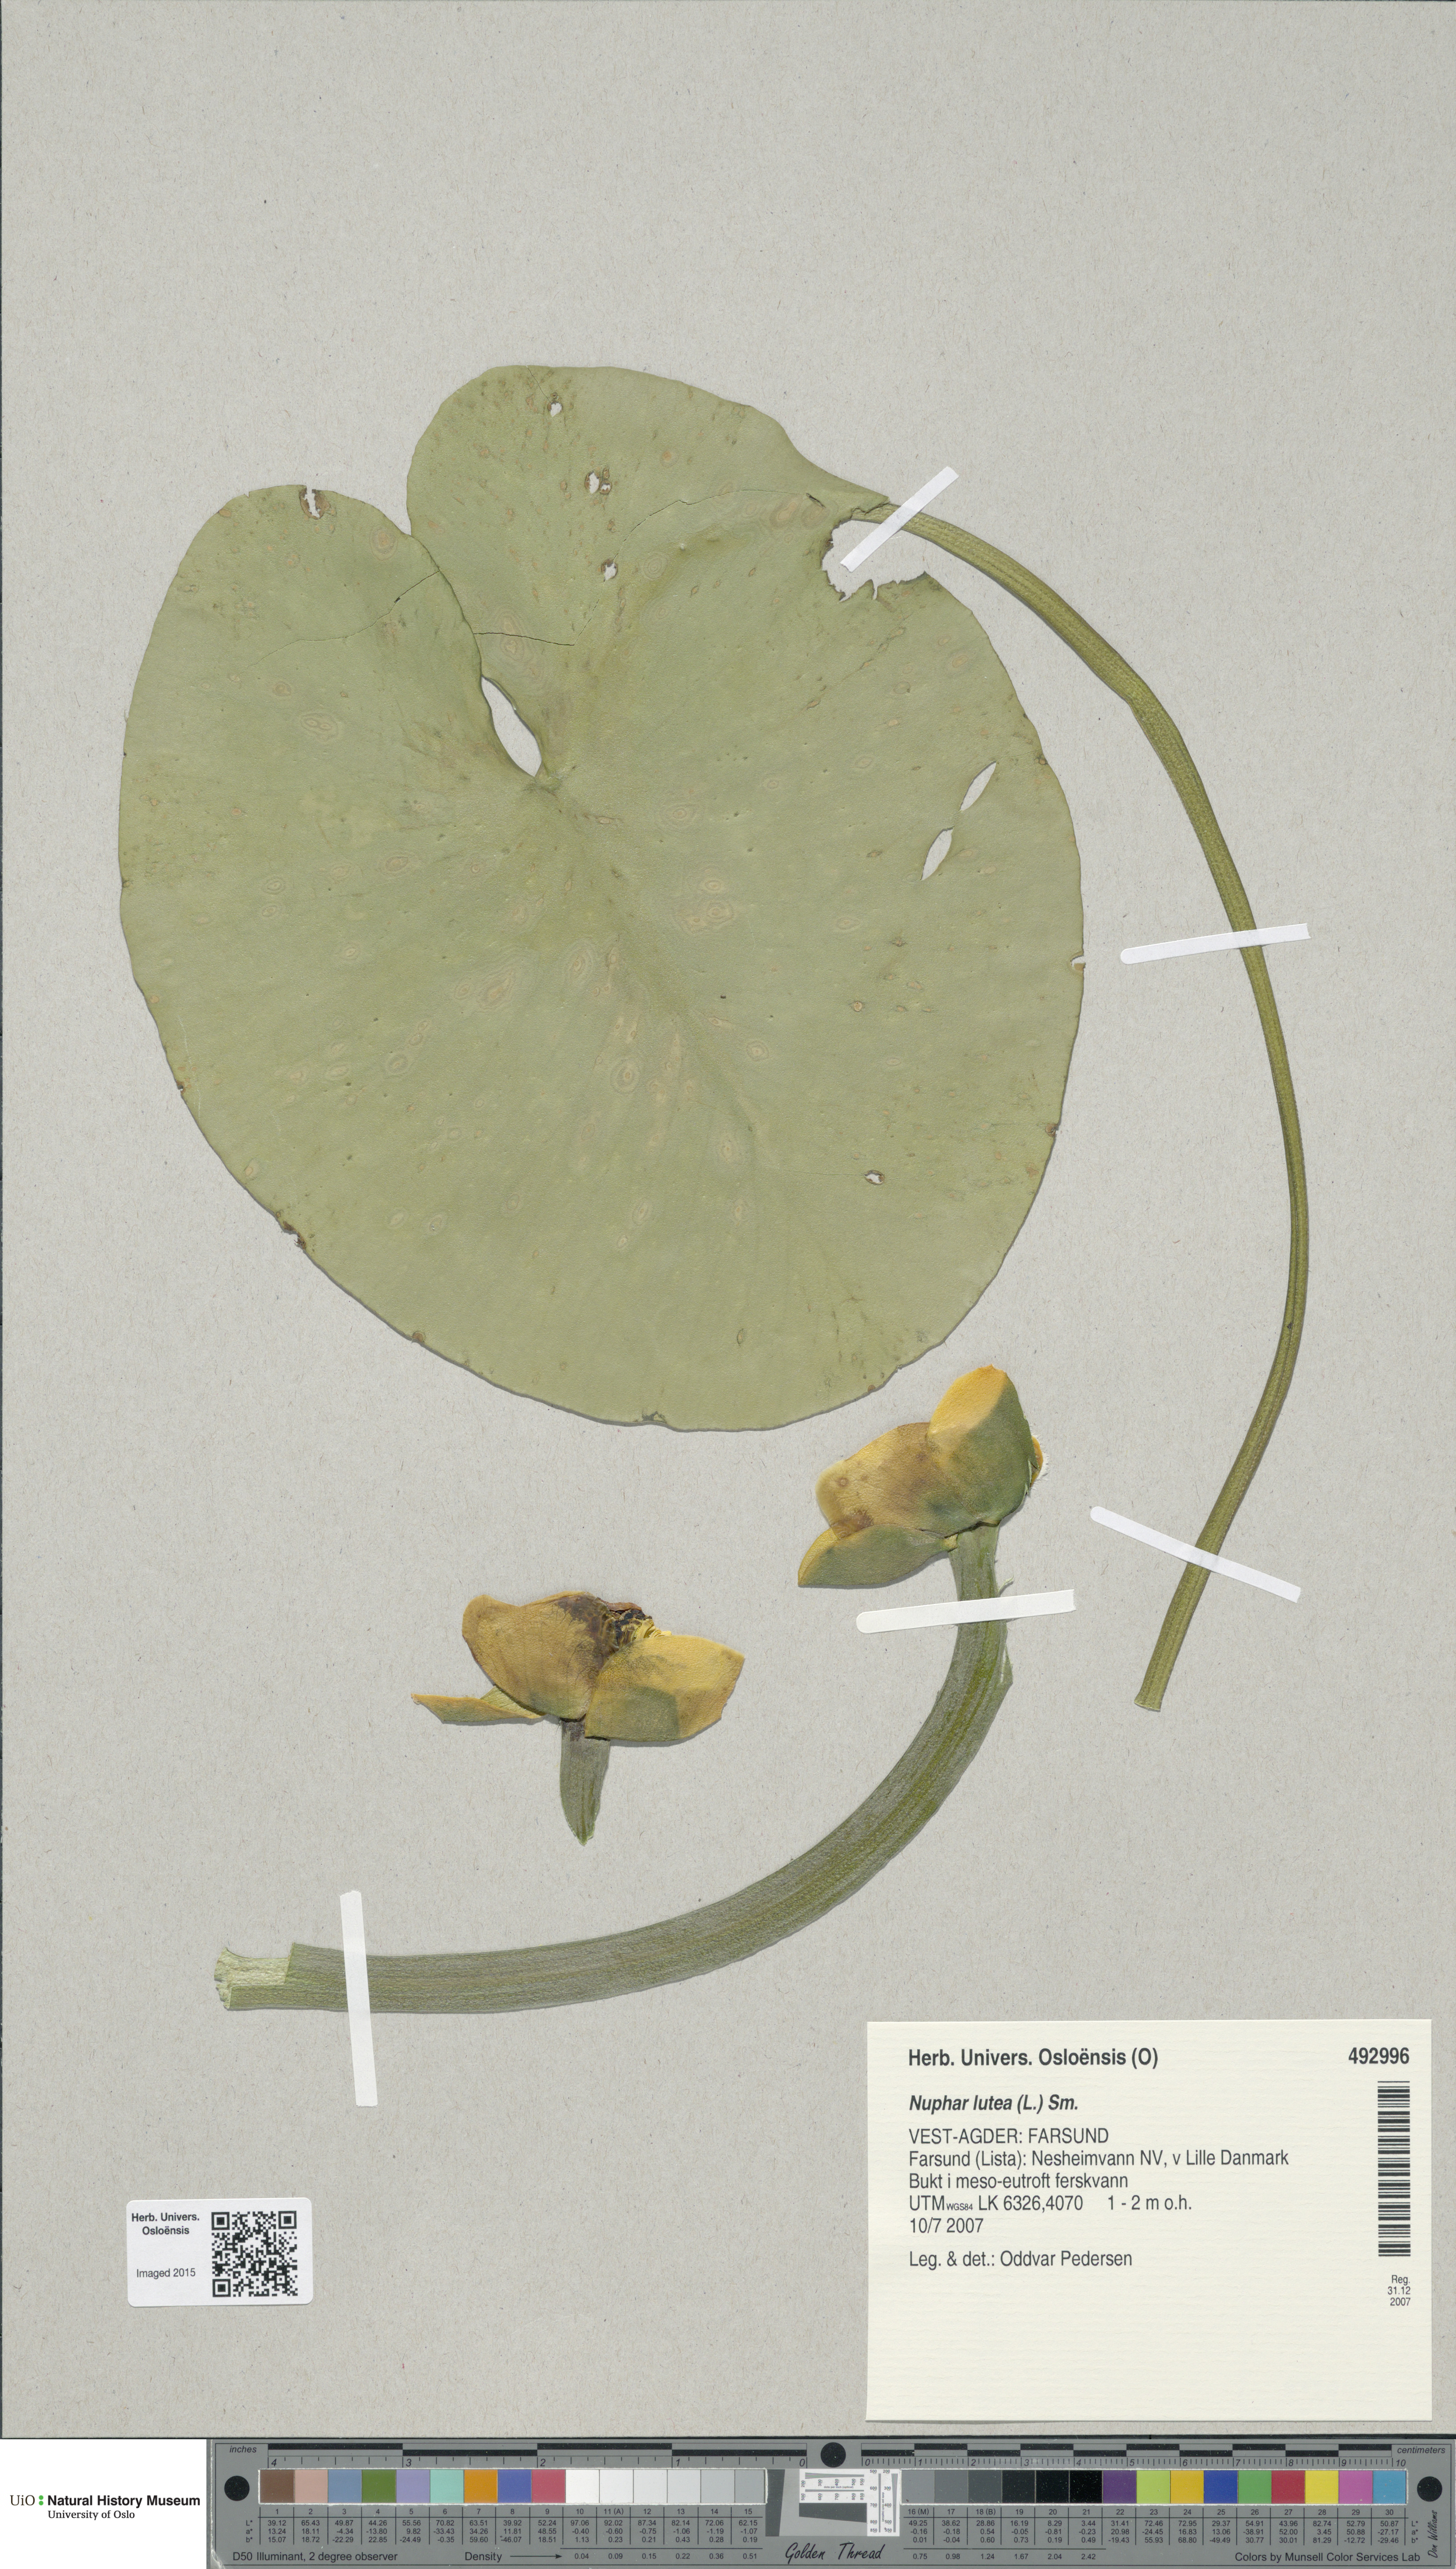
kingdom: Plantae
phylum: Tracheophyta
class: Magnoliopsida
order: Nymphaeales
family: Nymphaeaceae
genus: Nuphar
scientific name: Nuphar lutea
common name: Yellow water-lily
